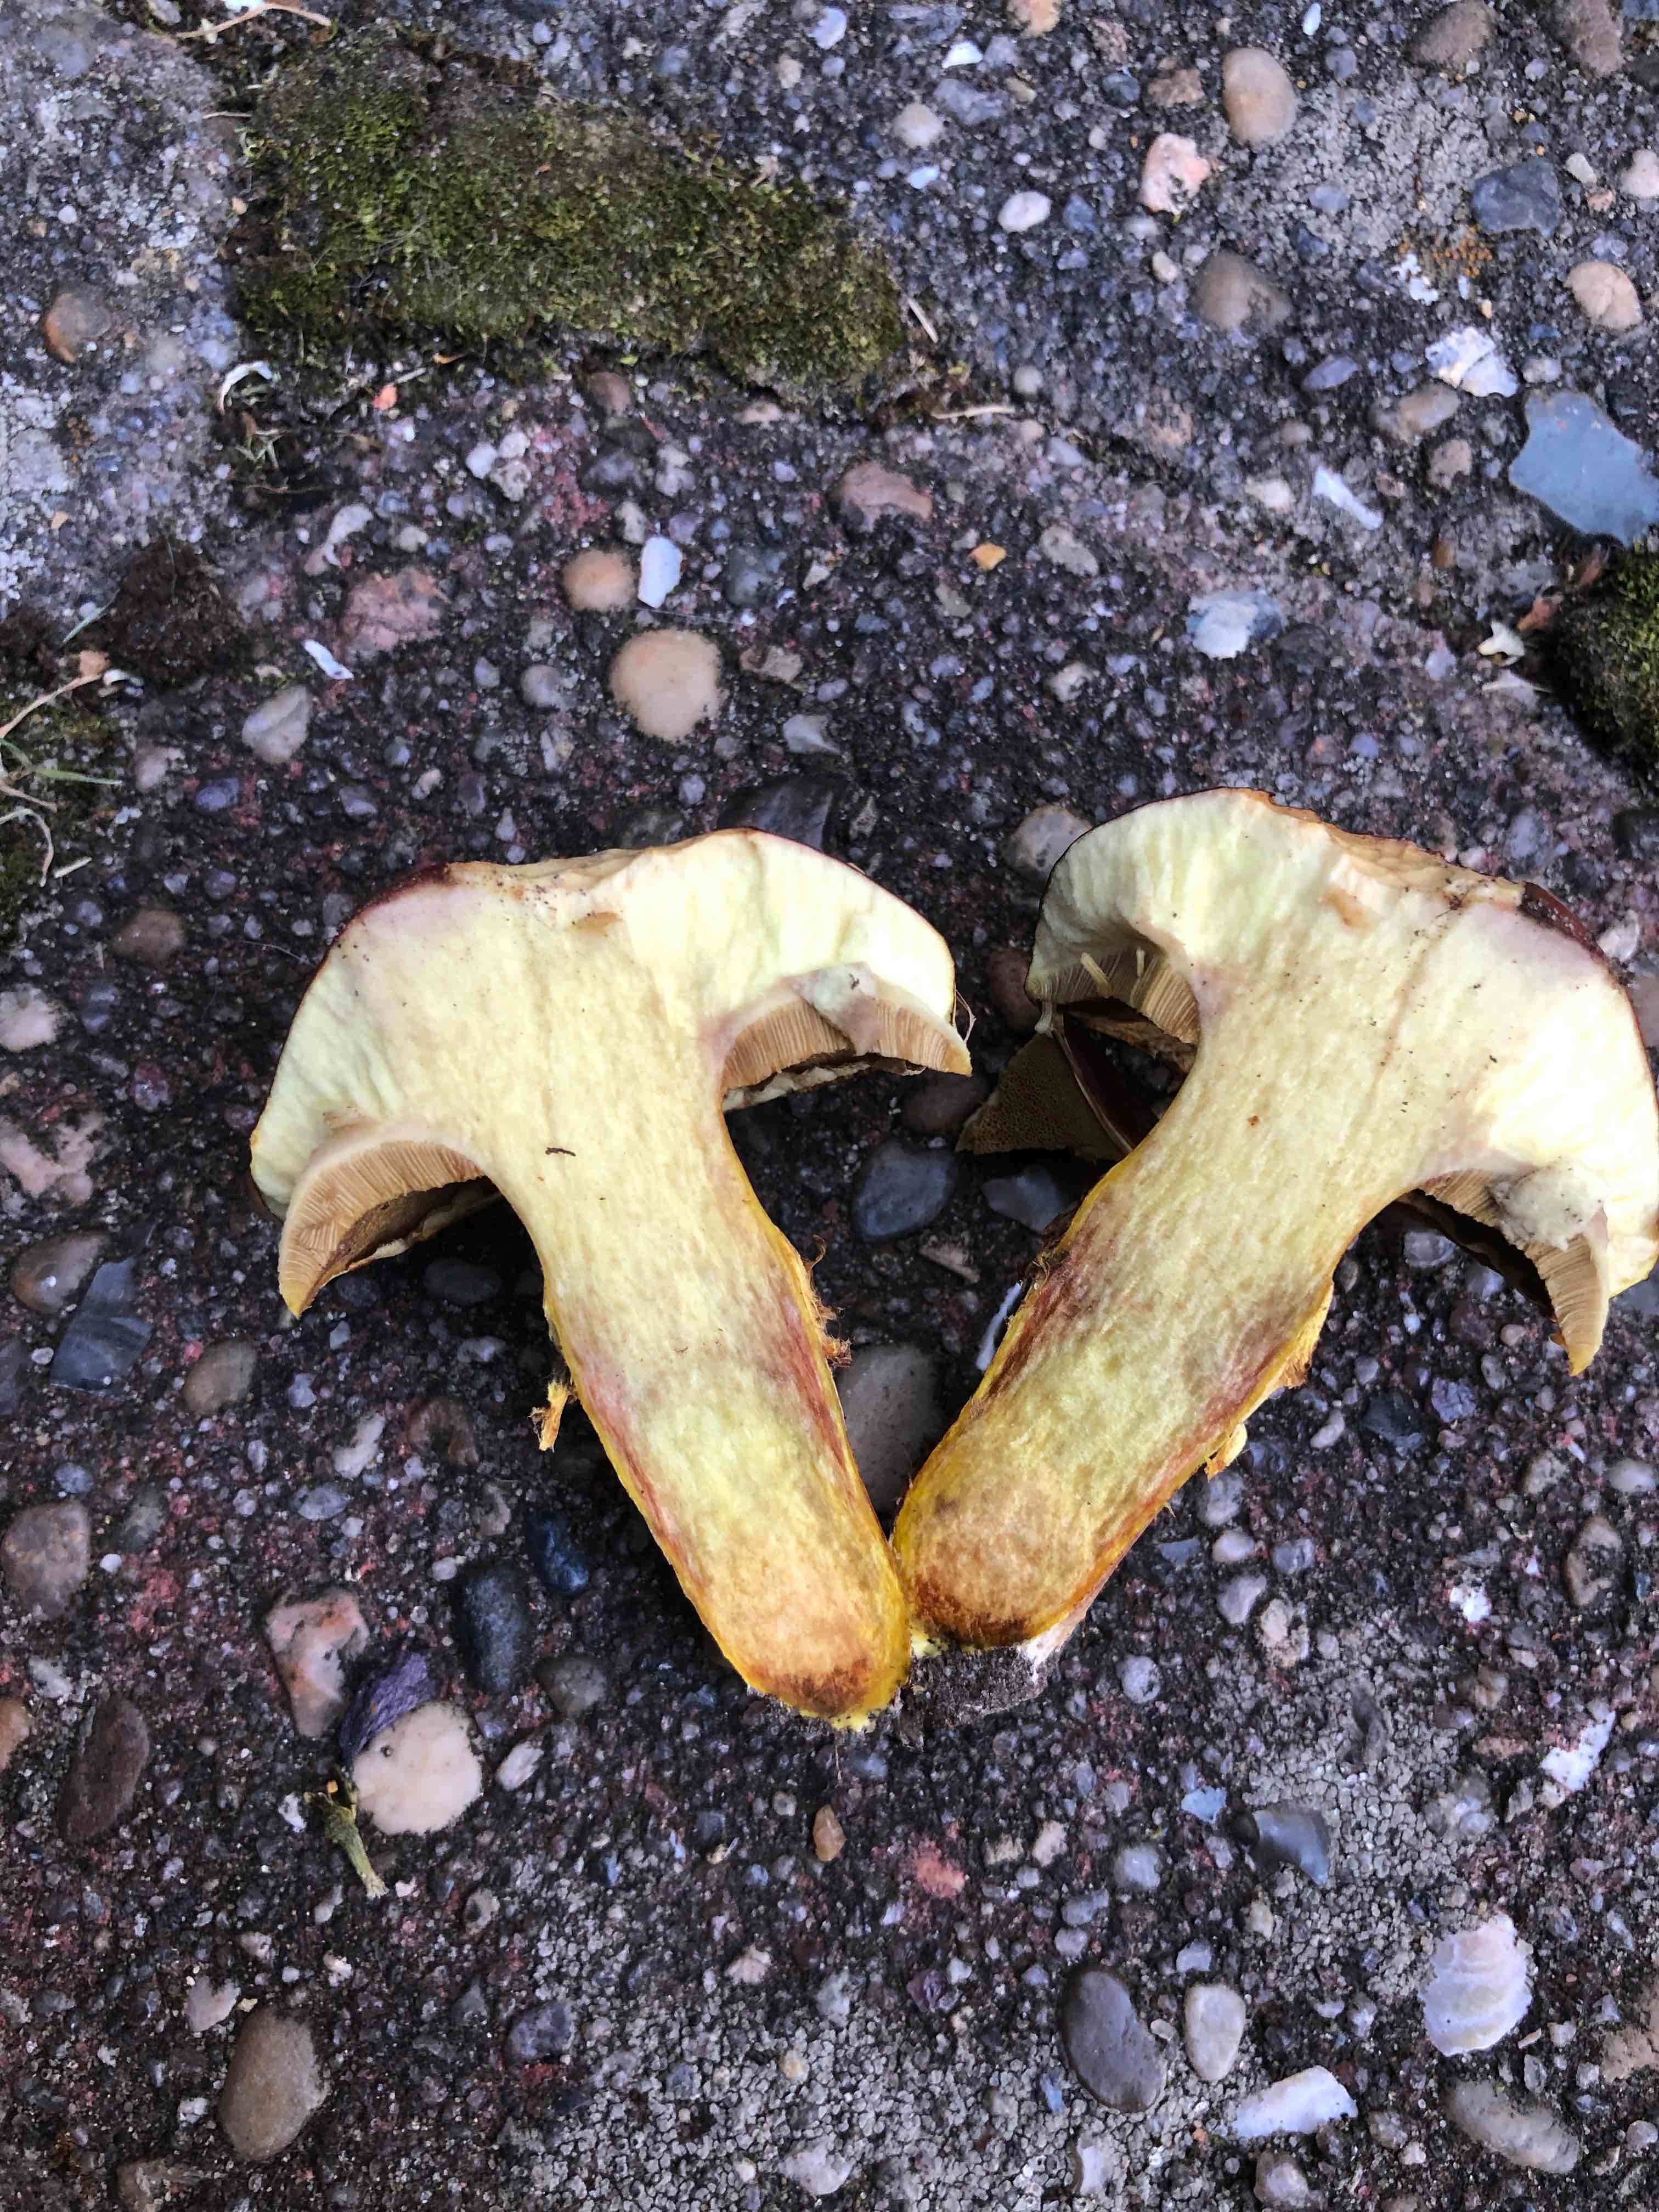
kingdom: Fungi
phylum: Basidiomycota
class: Agaricomycetes
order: Boletales
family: Suillaceae
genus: Suillus
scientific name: Suillus grevillei
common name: Larch bolete
